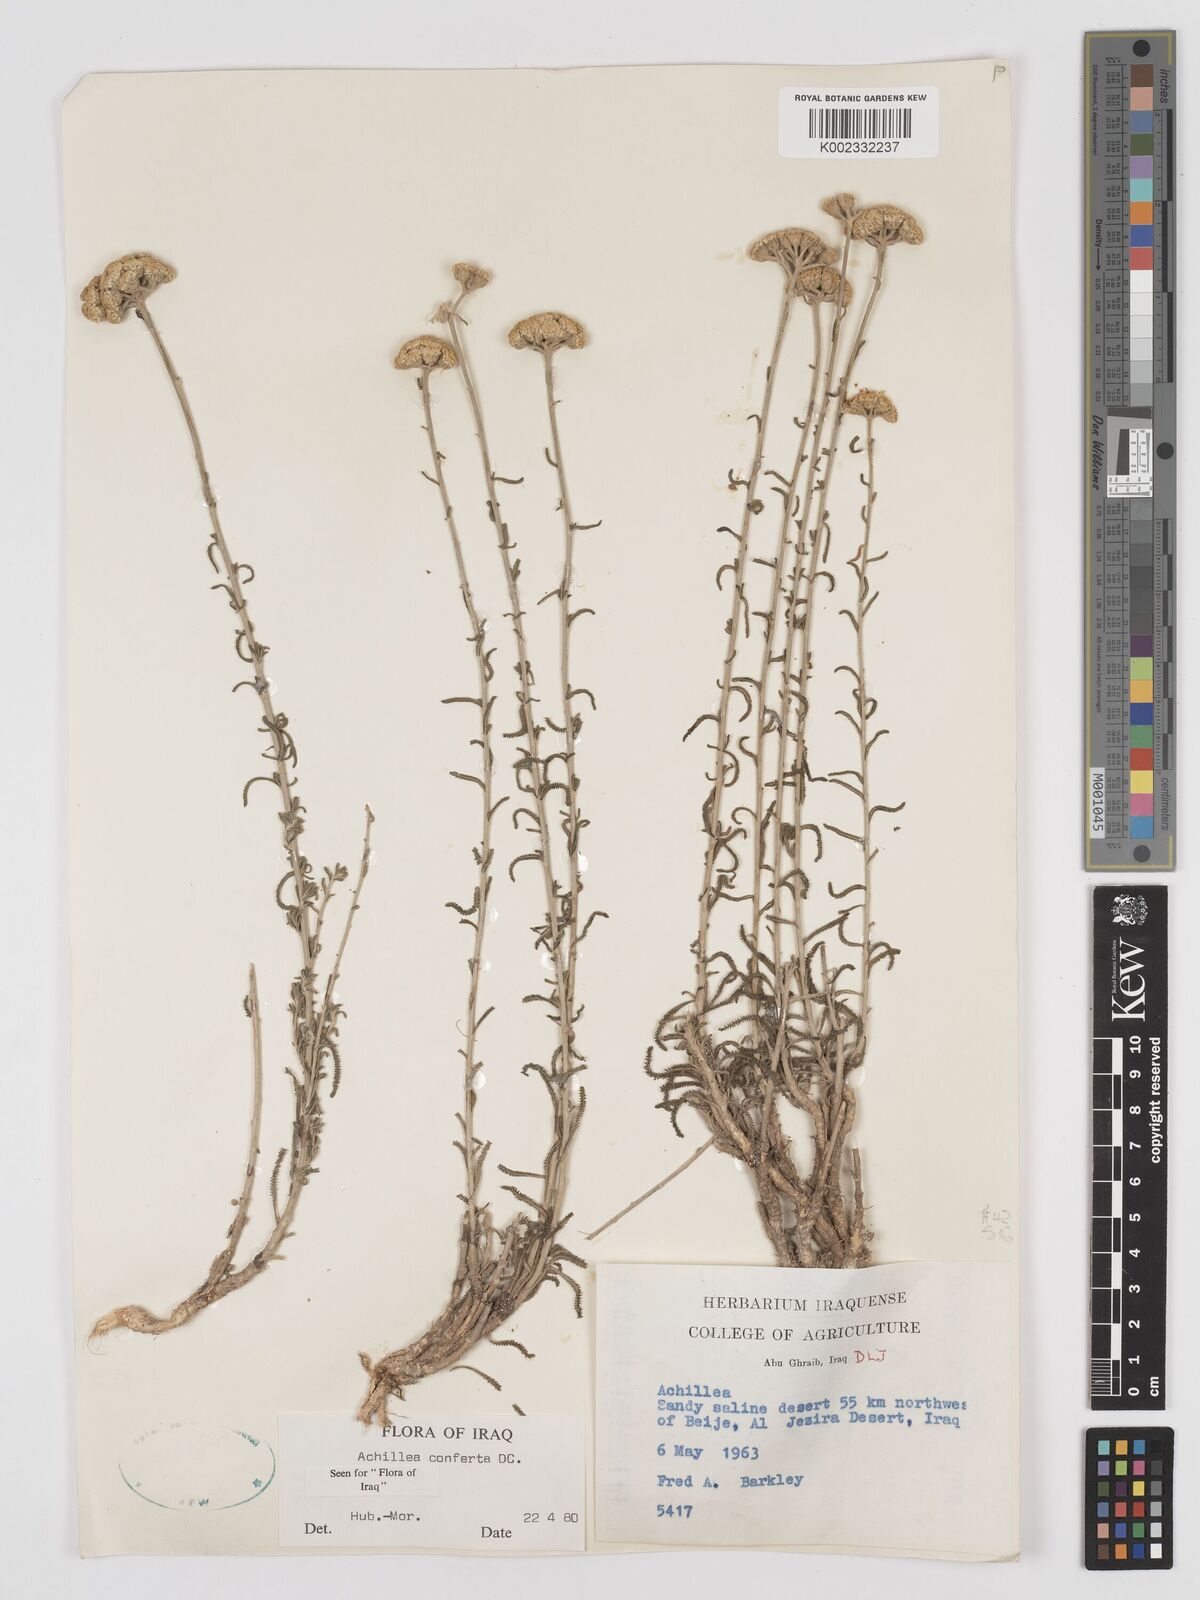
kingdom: Plantae
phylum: Tracheophyta
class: Magnoliopsida
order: Asterales
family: Asteraceae
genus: Achillea
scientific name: Achillea conferta
